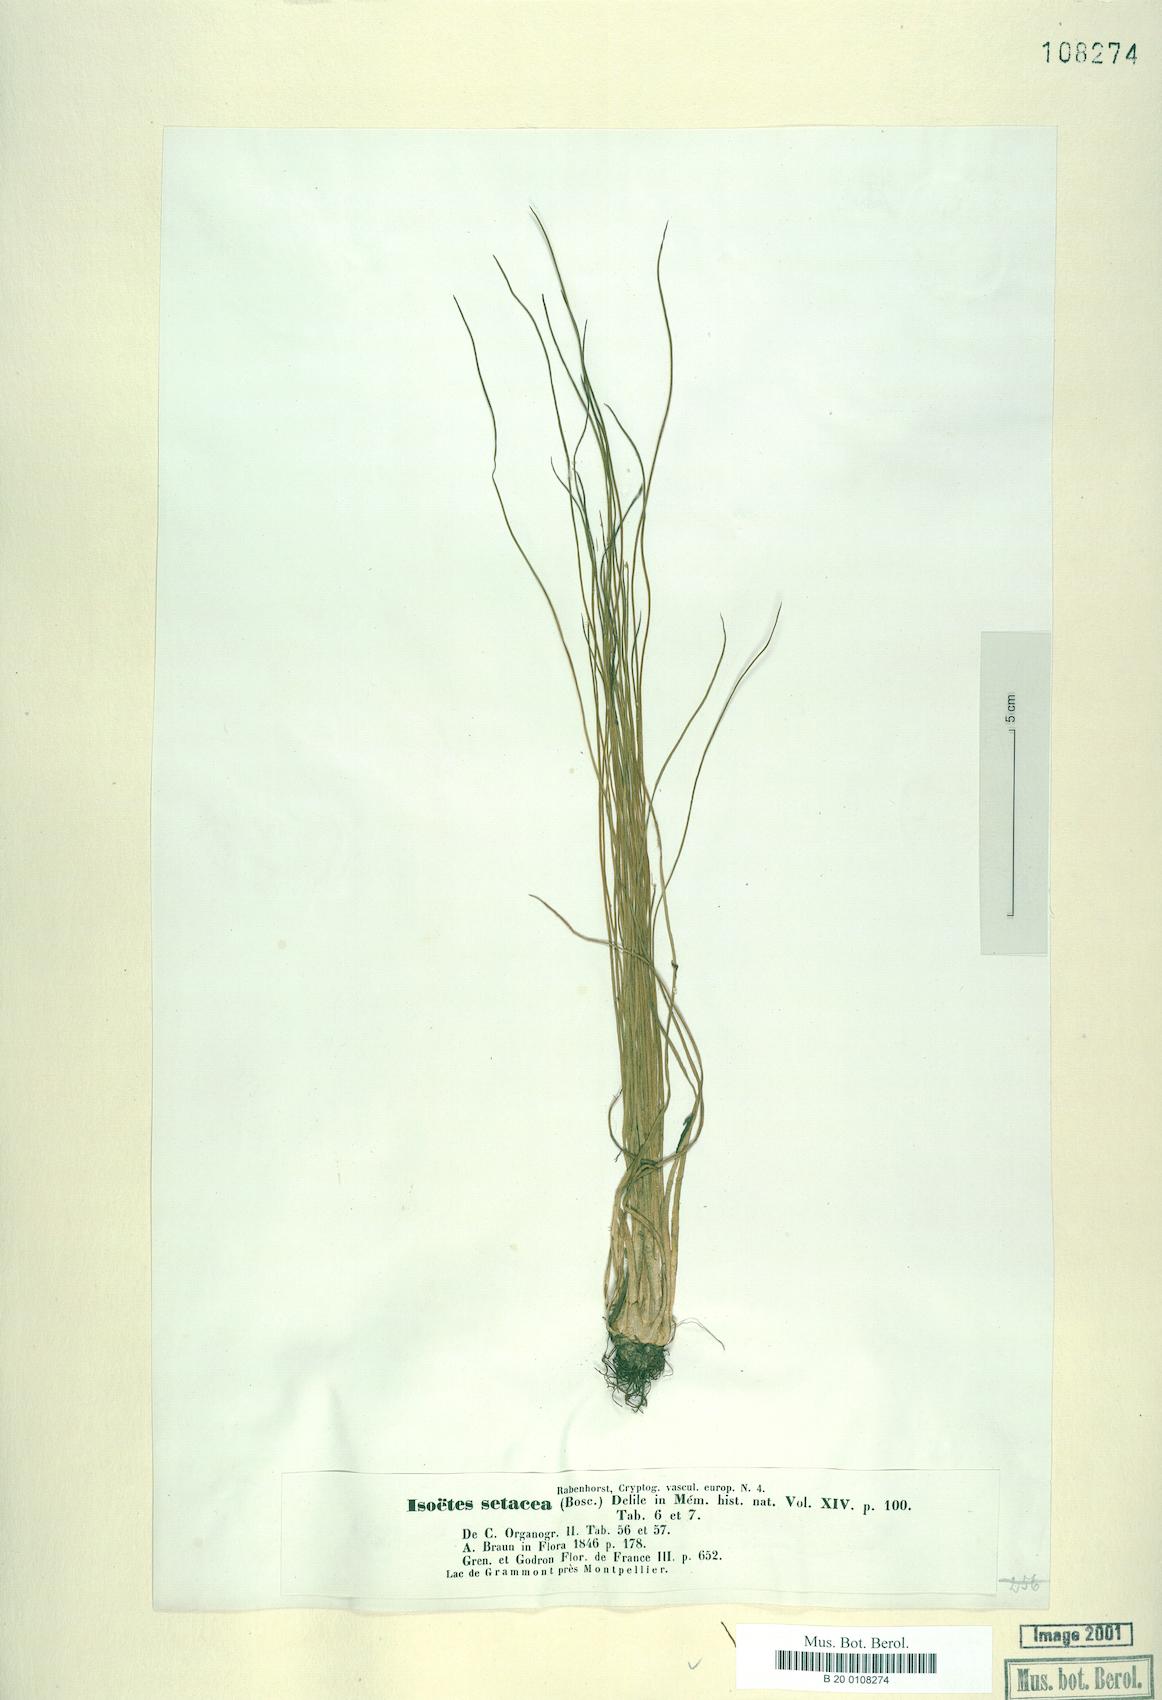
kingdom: Plantae
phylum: Tracheophyta
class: Lycopodiopsida
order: Isoetales
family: Isoetaceae
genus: Isoetes
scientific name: Isoetes lacustris
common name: Common quillwort
